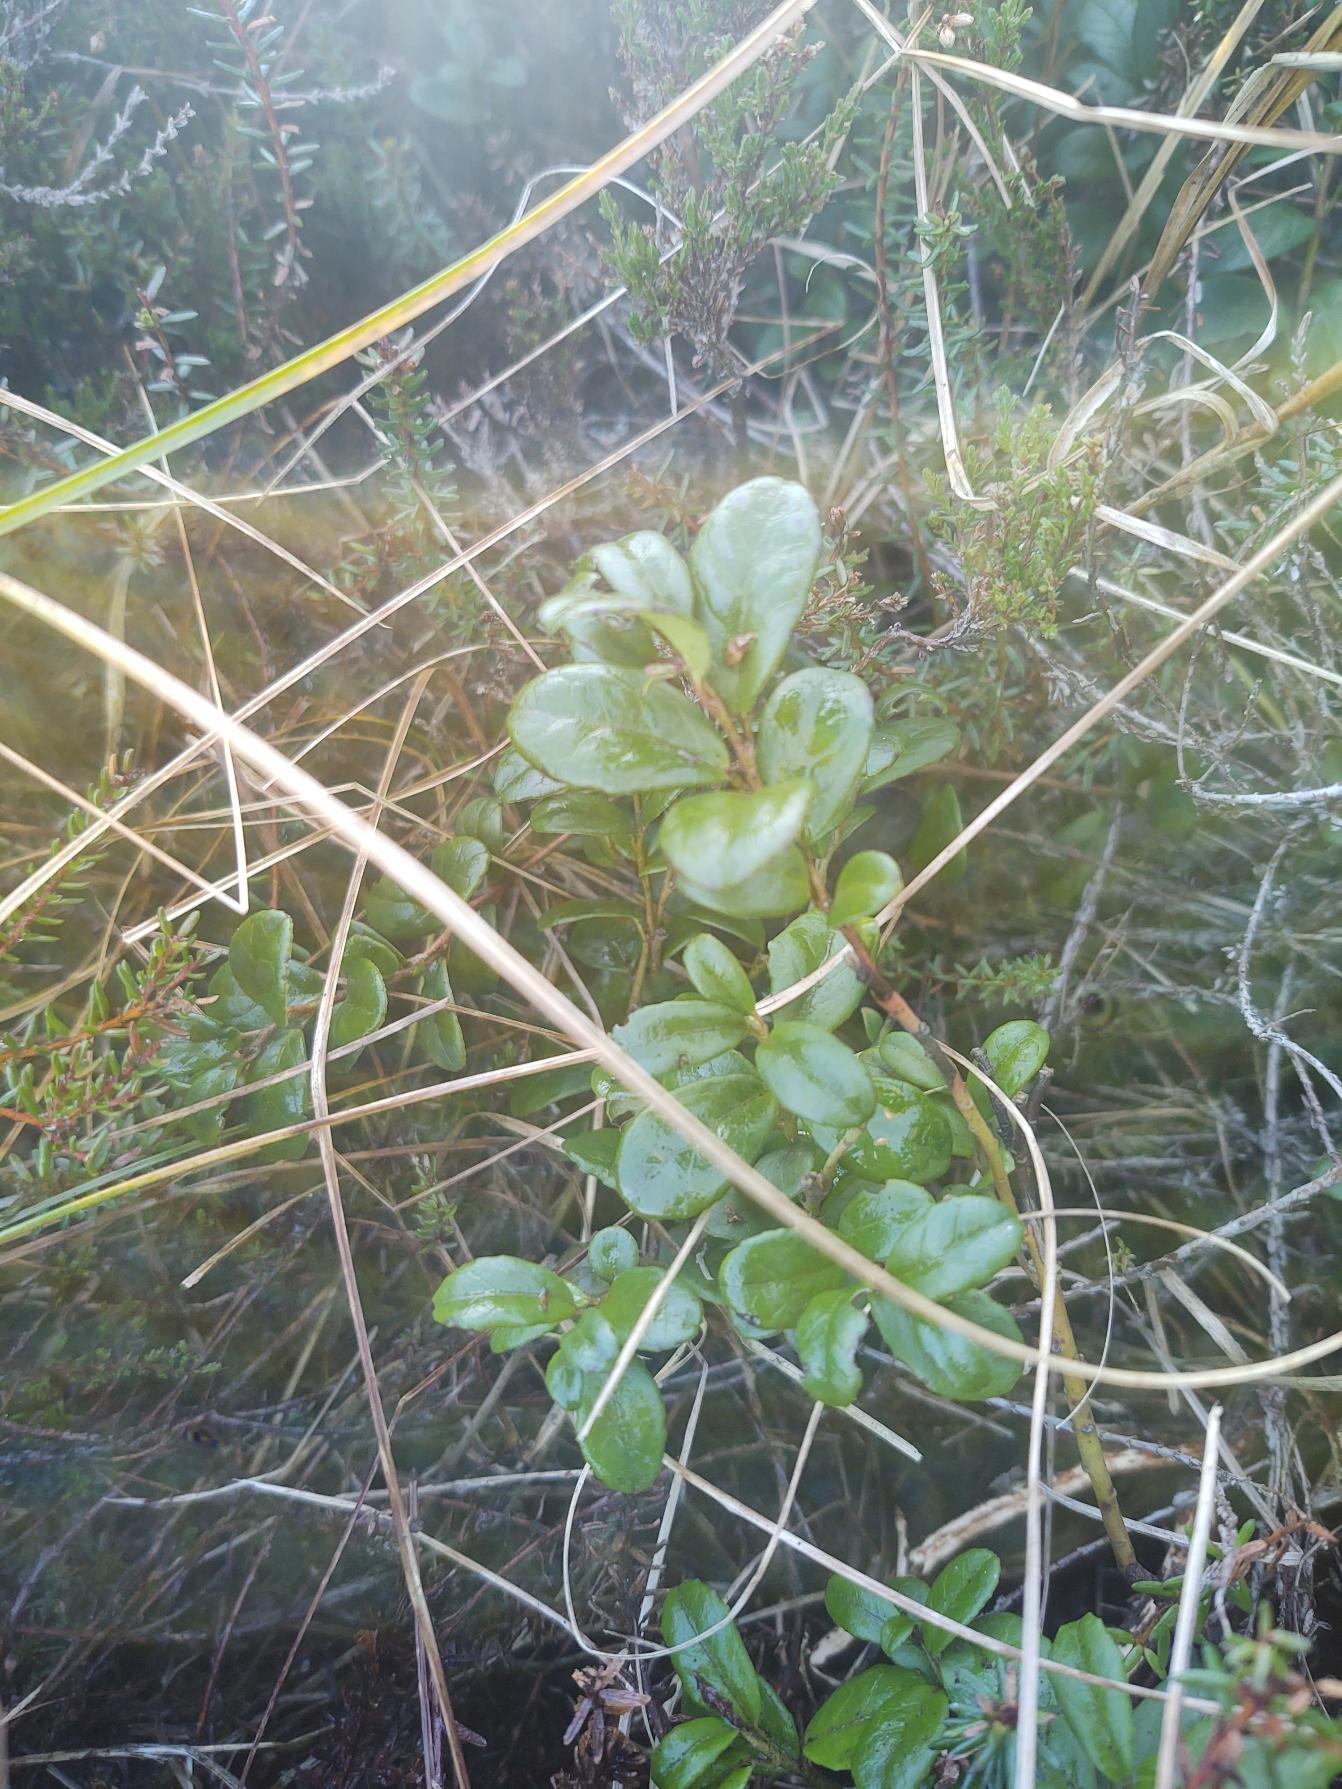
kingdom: Plantae
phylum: Tracheophyta
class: Magnoliopsida
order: Ericales
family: Ericaceae
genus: Vaccinium
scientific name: Vaccinium vitis-idaea
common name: Tyttebær
